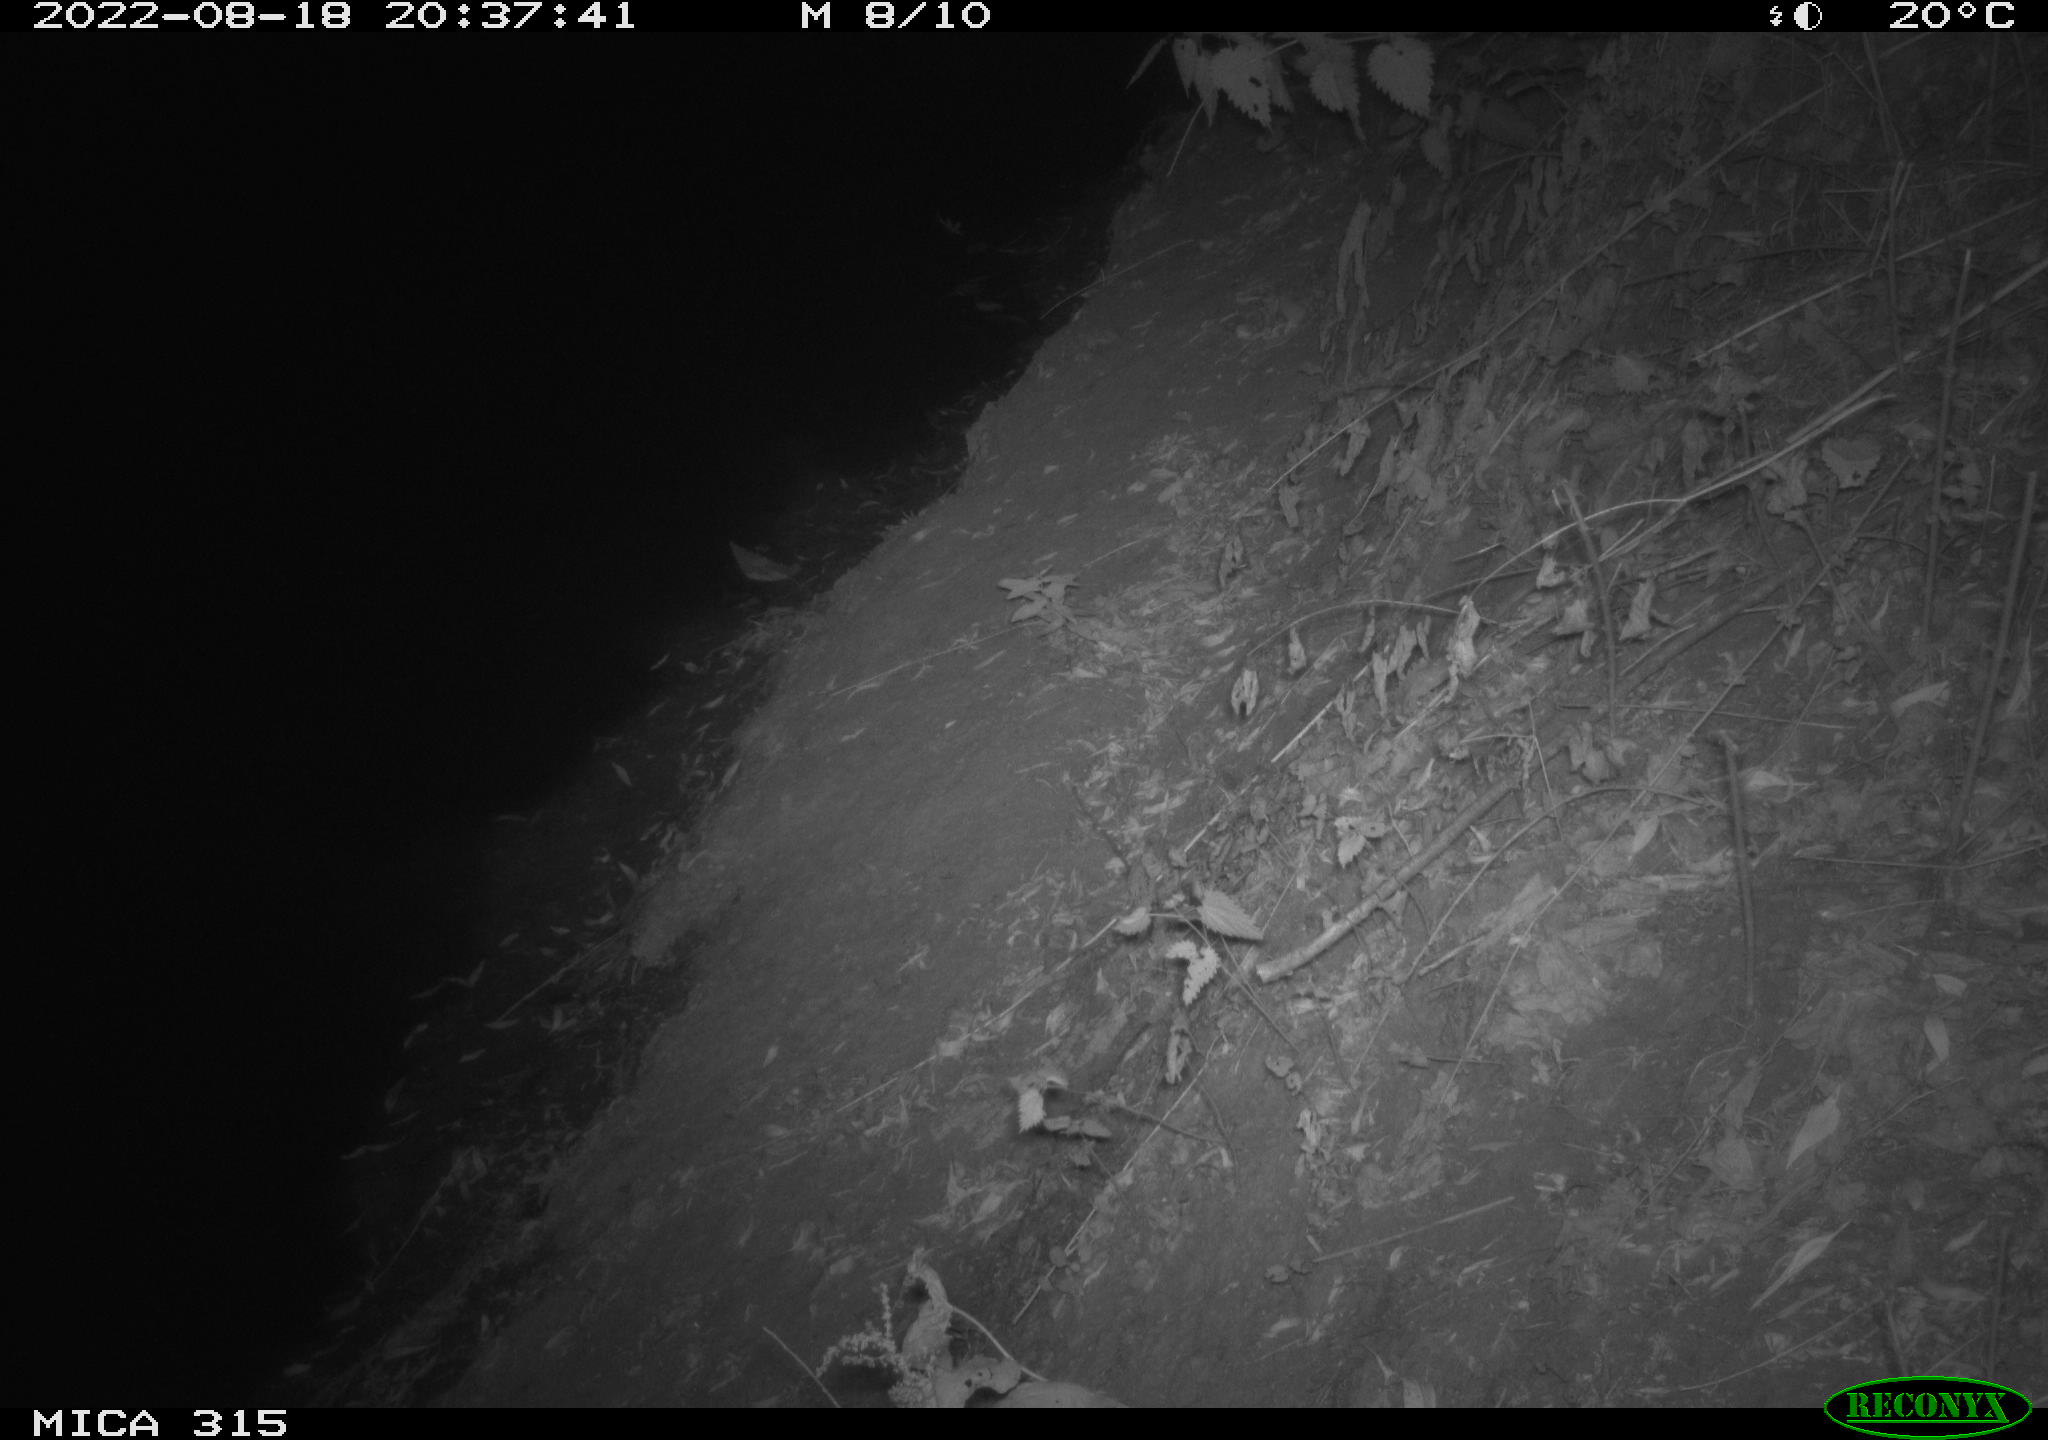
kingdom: Animalia
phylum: Chordata
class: Mammalia
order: Carnivora
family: Canidae
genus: Vulpes
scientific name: Vulpes vulpes
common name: Red fox
